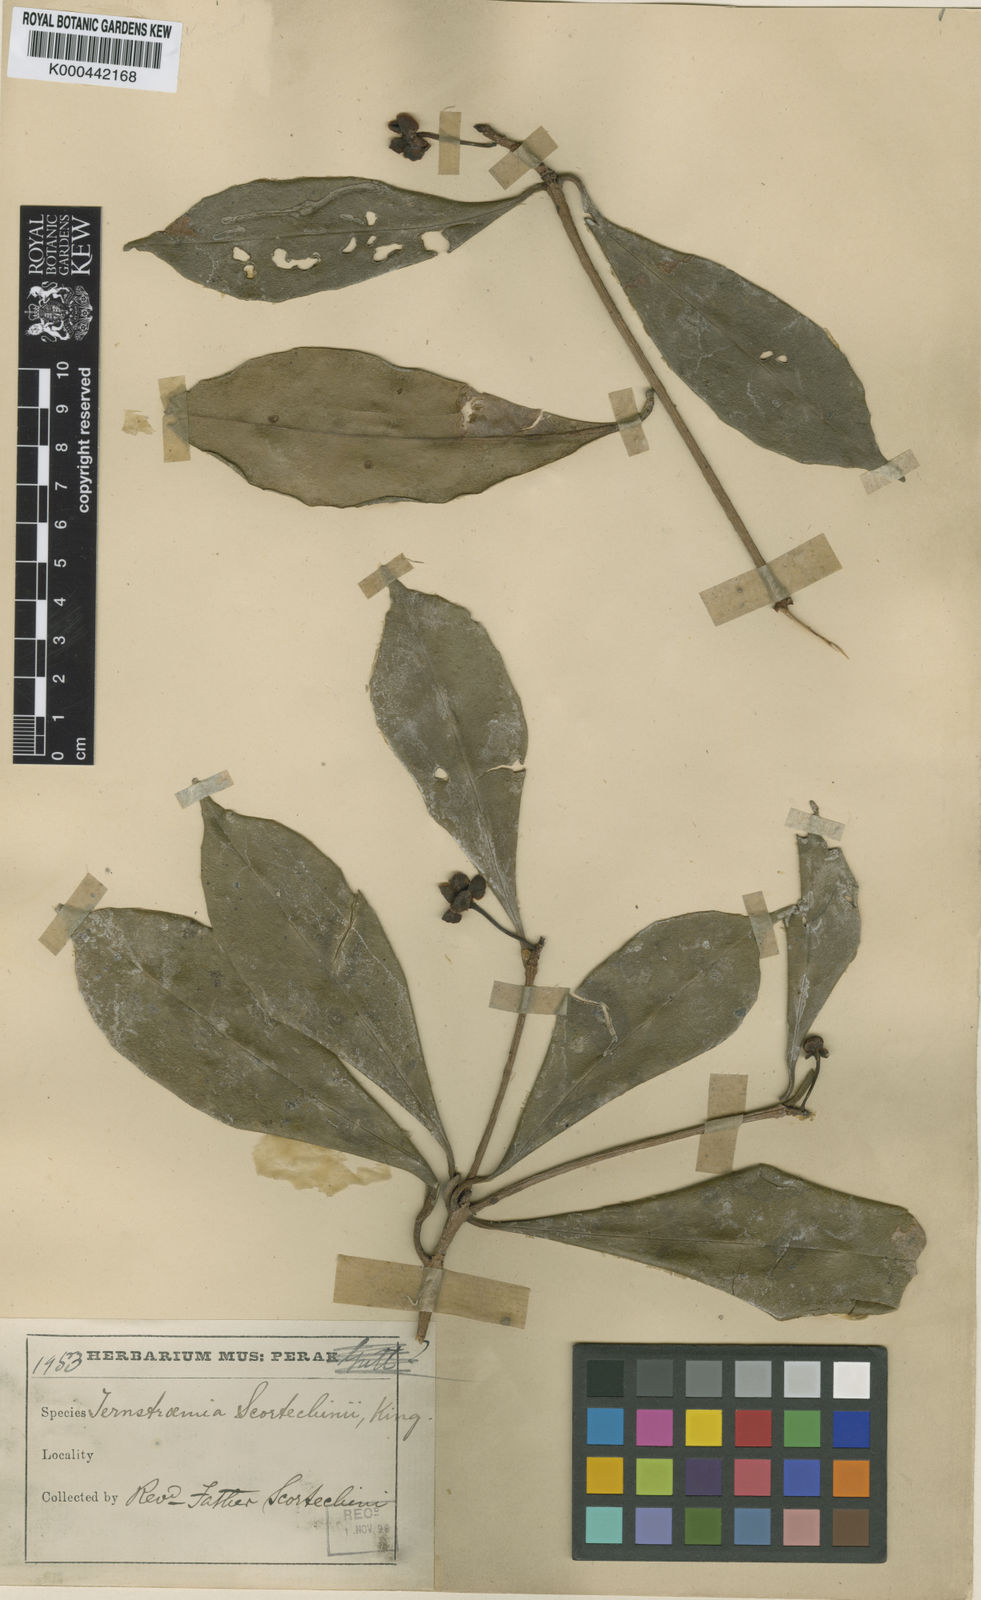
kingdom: Plantae
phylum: Tracheophyta
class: Magnoliopsida
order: Ericales
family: Pentaphylacaceae
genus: Ternstroemia
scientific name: Ternstroemia evenia
